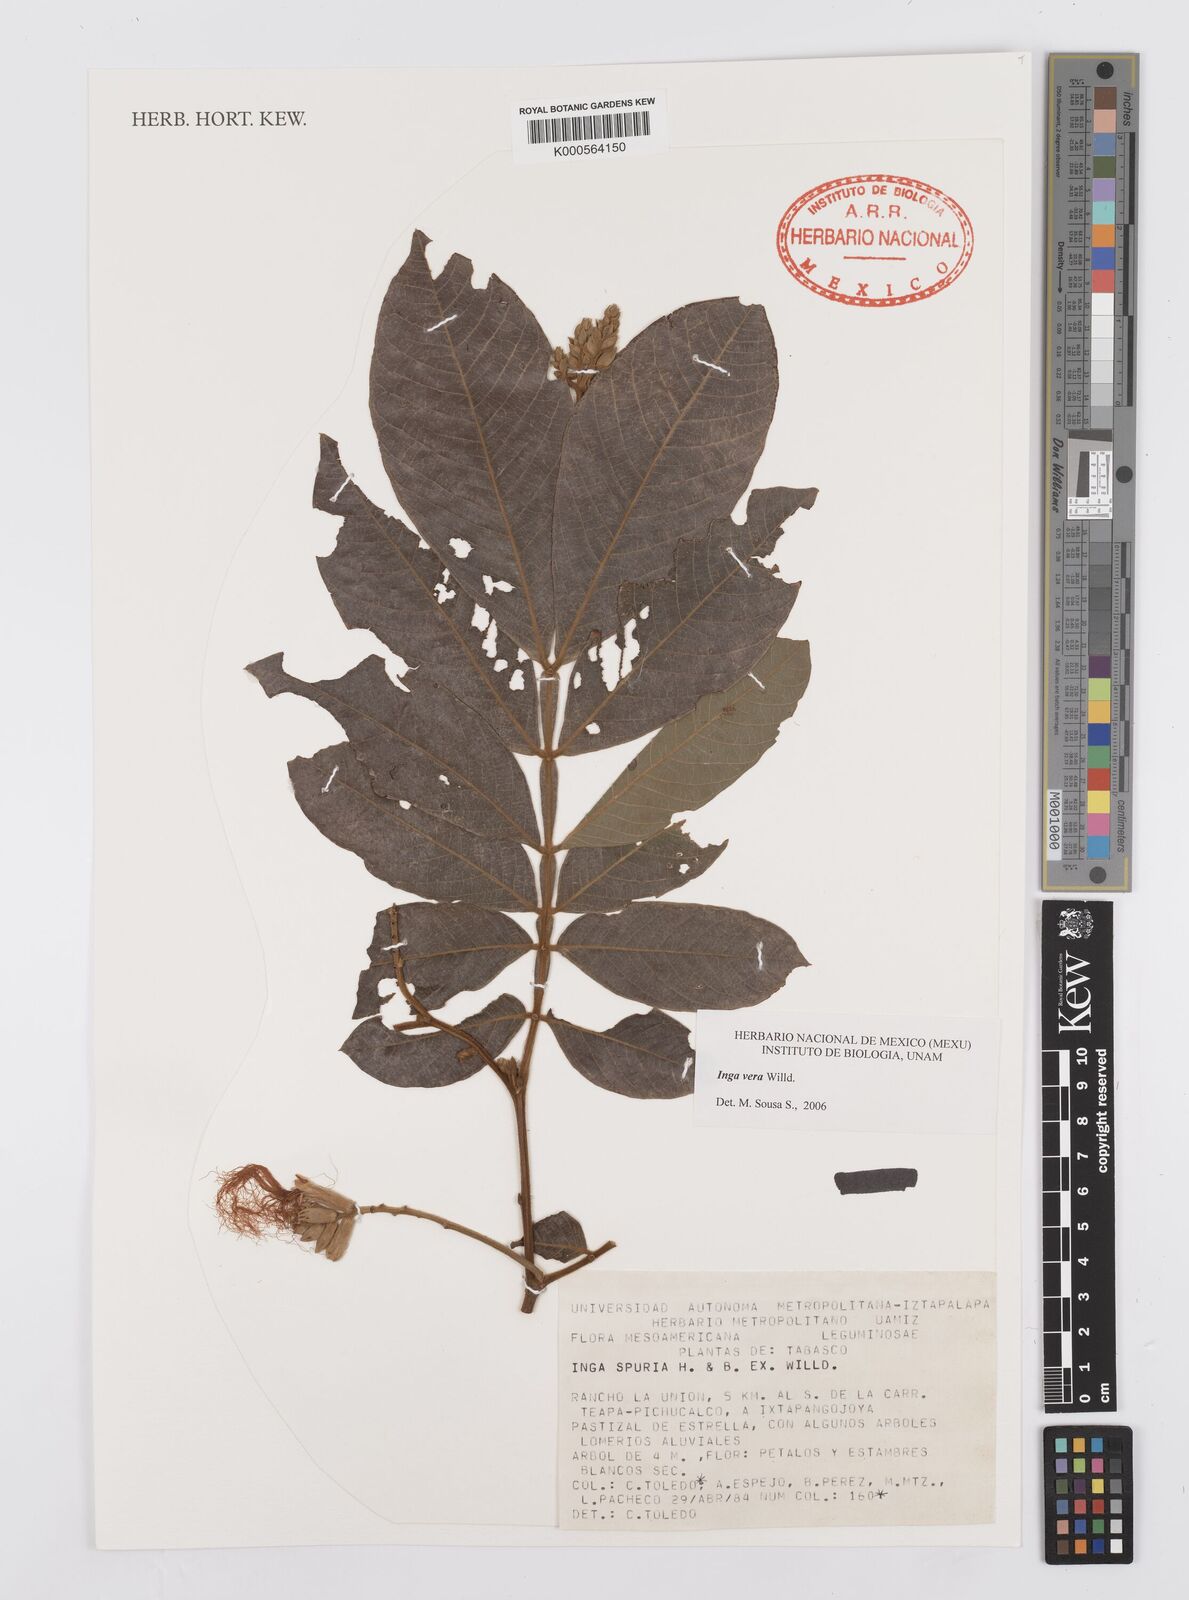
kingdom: Plantae
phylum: Tracheophyta
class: Magnoliopsida
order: Fabales
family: Fabaceae
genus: Inga
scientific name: Inga vera
